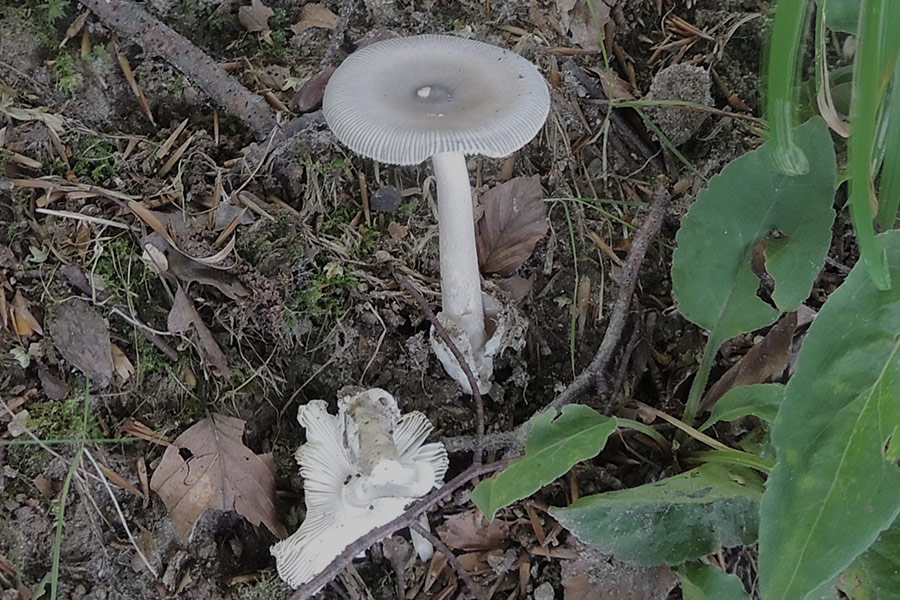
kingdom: Fungi
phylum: Basidiomycota
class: Agaricomycetes
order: Agaricales
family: Amanitaceae
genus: Amanita
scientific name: Amanita vaginata
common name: grå kam-fluesvamp
